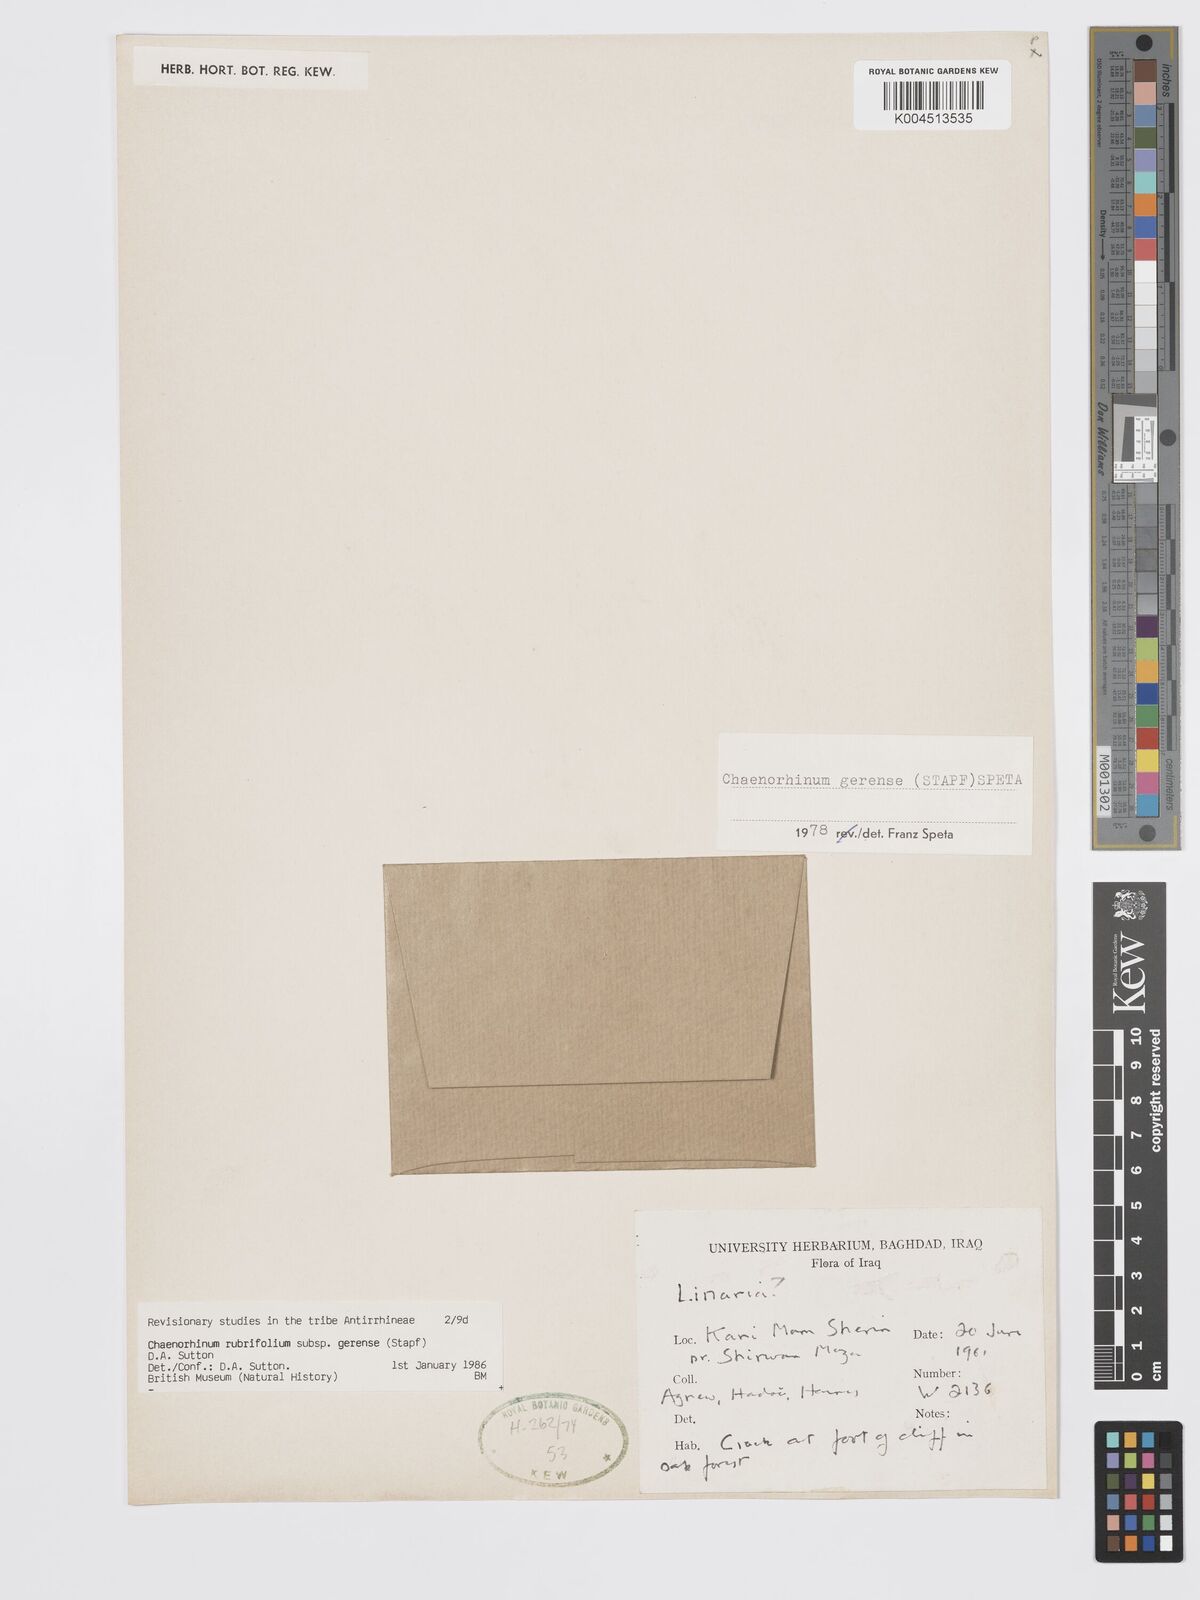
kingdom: Plantae
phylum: Tracheophyta
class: Magnoliopsida
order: Lamiales
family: Plantaginaceae
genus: Chaenorhinum
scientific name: Chaenorhinum rubrifolium
